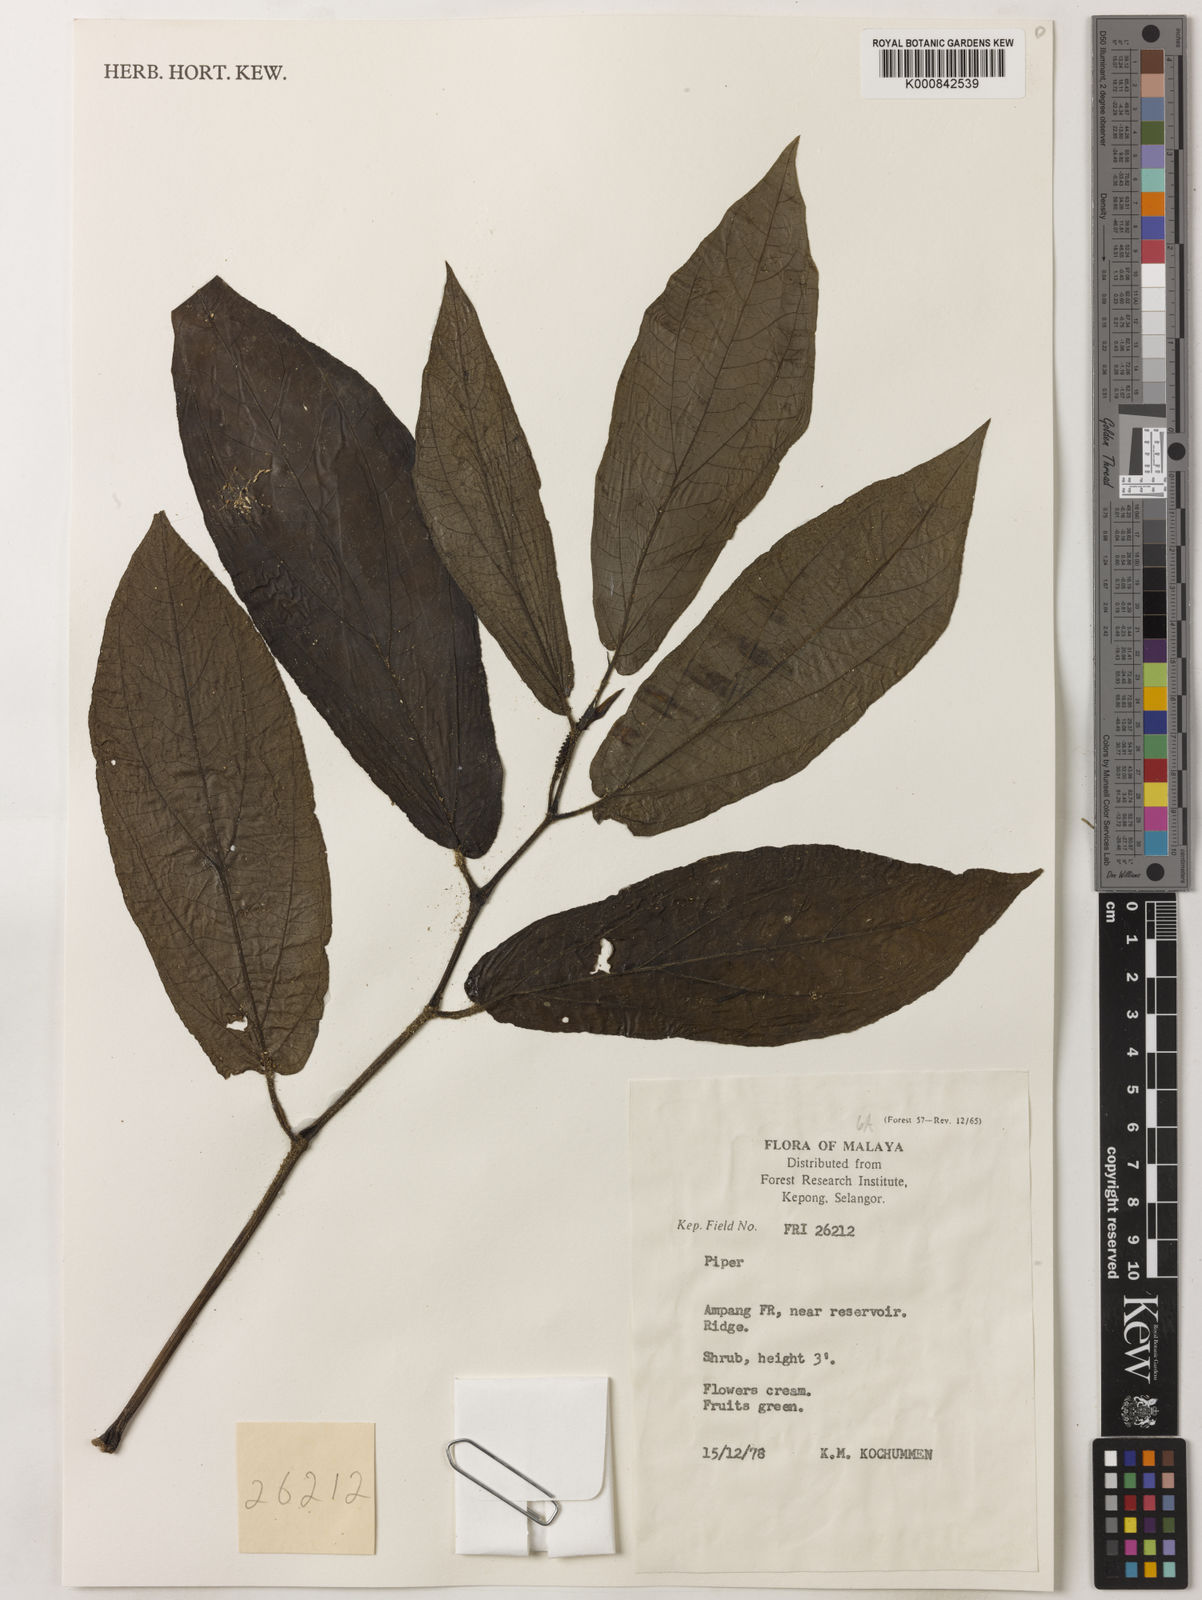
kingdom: Plantae
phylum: Tracheophyta
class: Magnoliopsida
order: Piperales
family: Piperaceae
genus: Piper
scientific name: Piper
